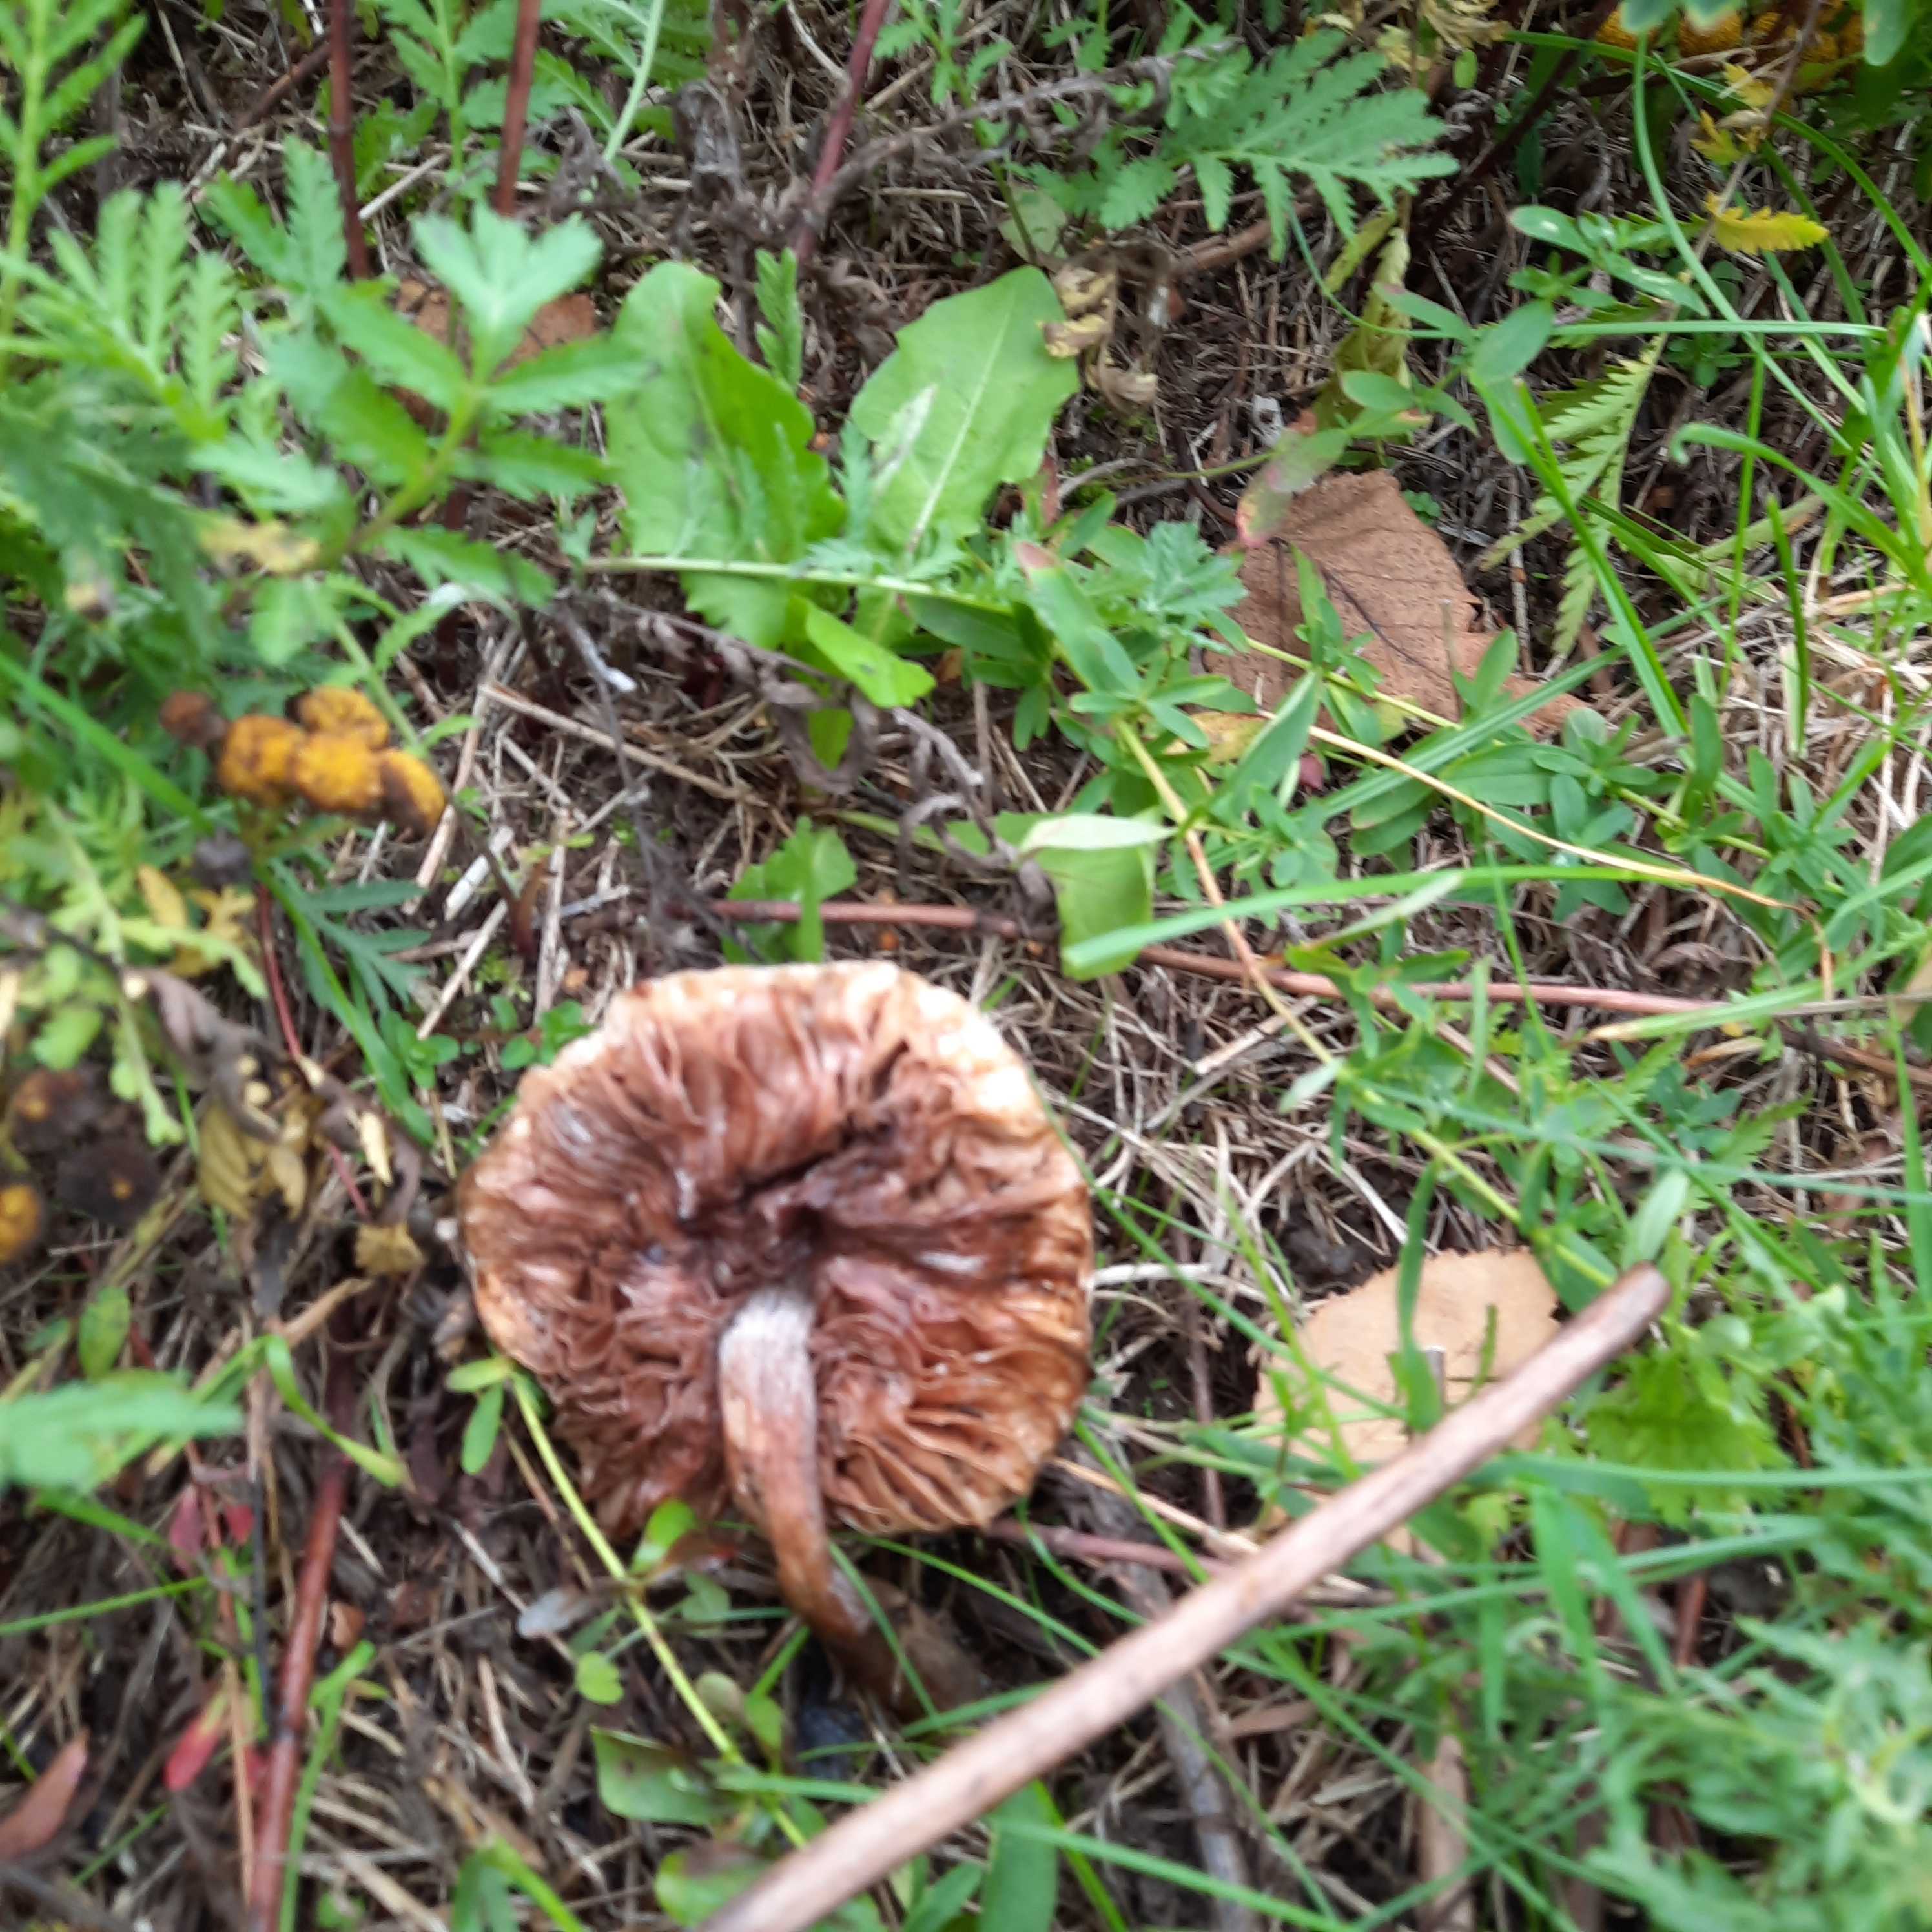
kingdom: Fungi
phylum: Basidiomycota
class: Agaricomycetes
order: Agaricales
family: Tricholomataceae
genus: Melanoleuca
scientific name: Melanoleuca
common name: munkehat
